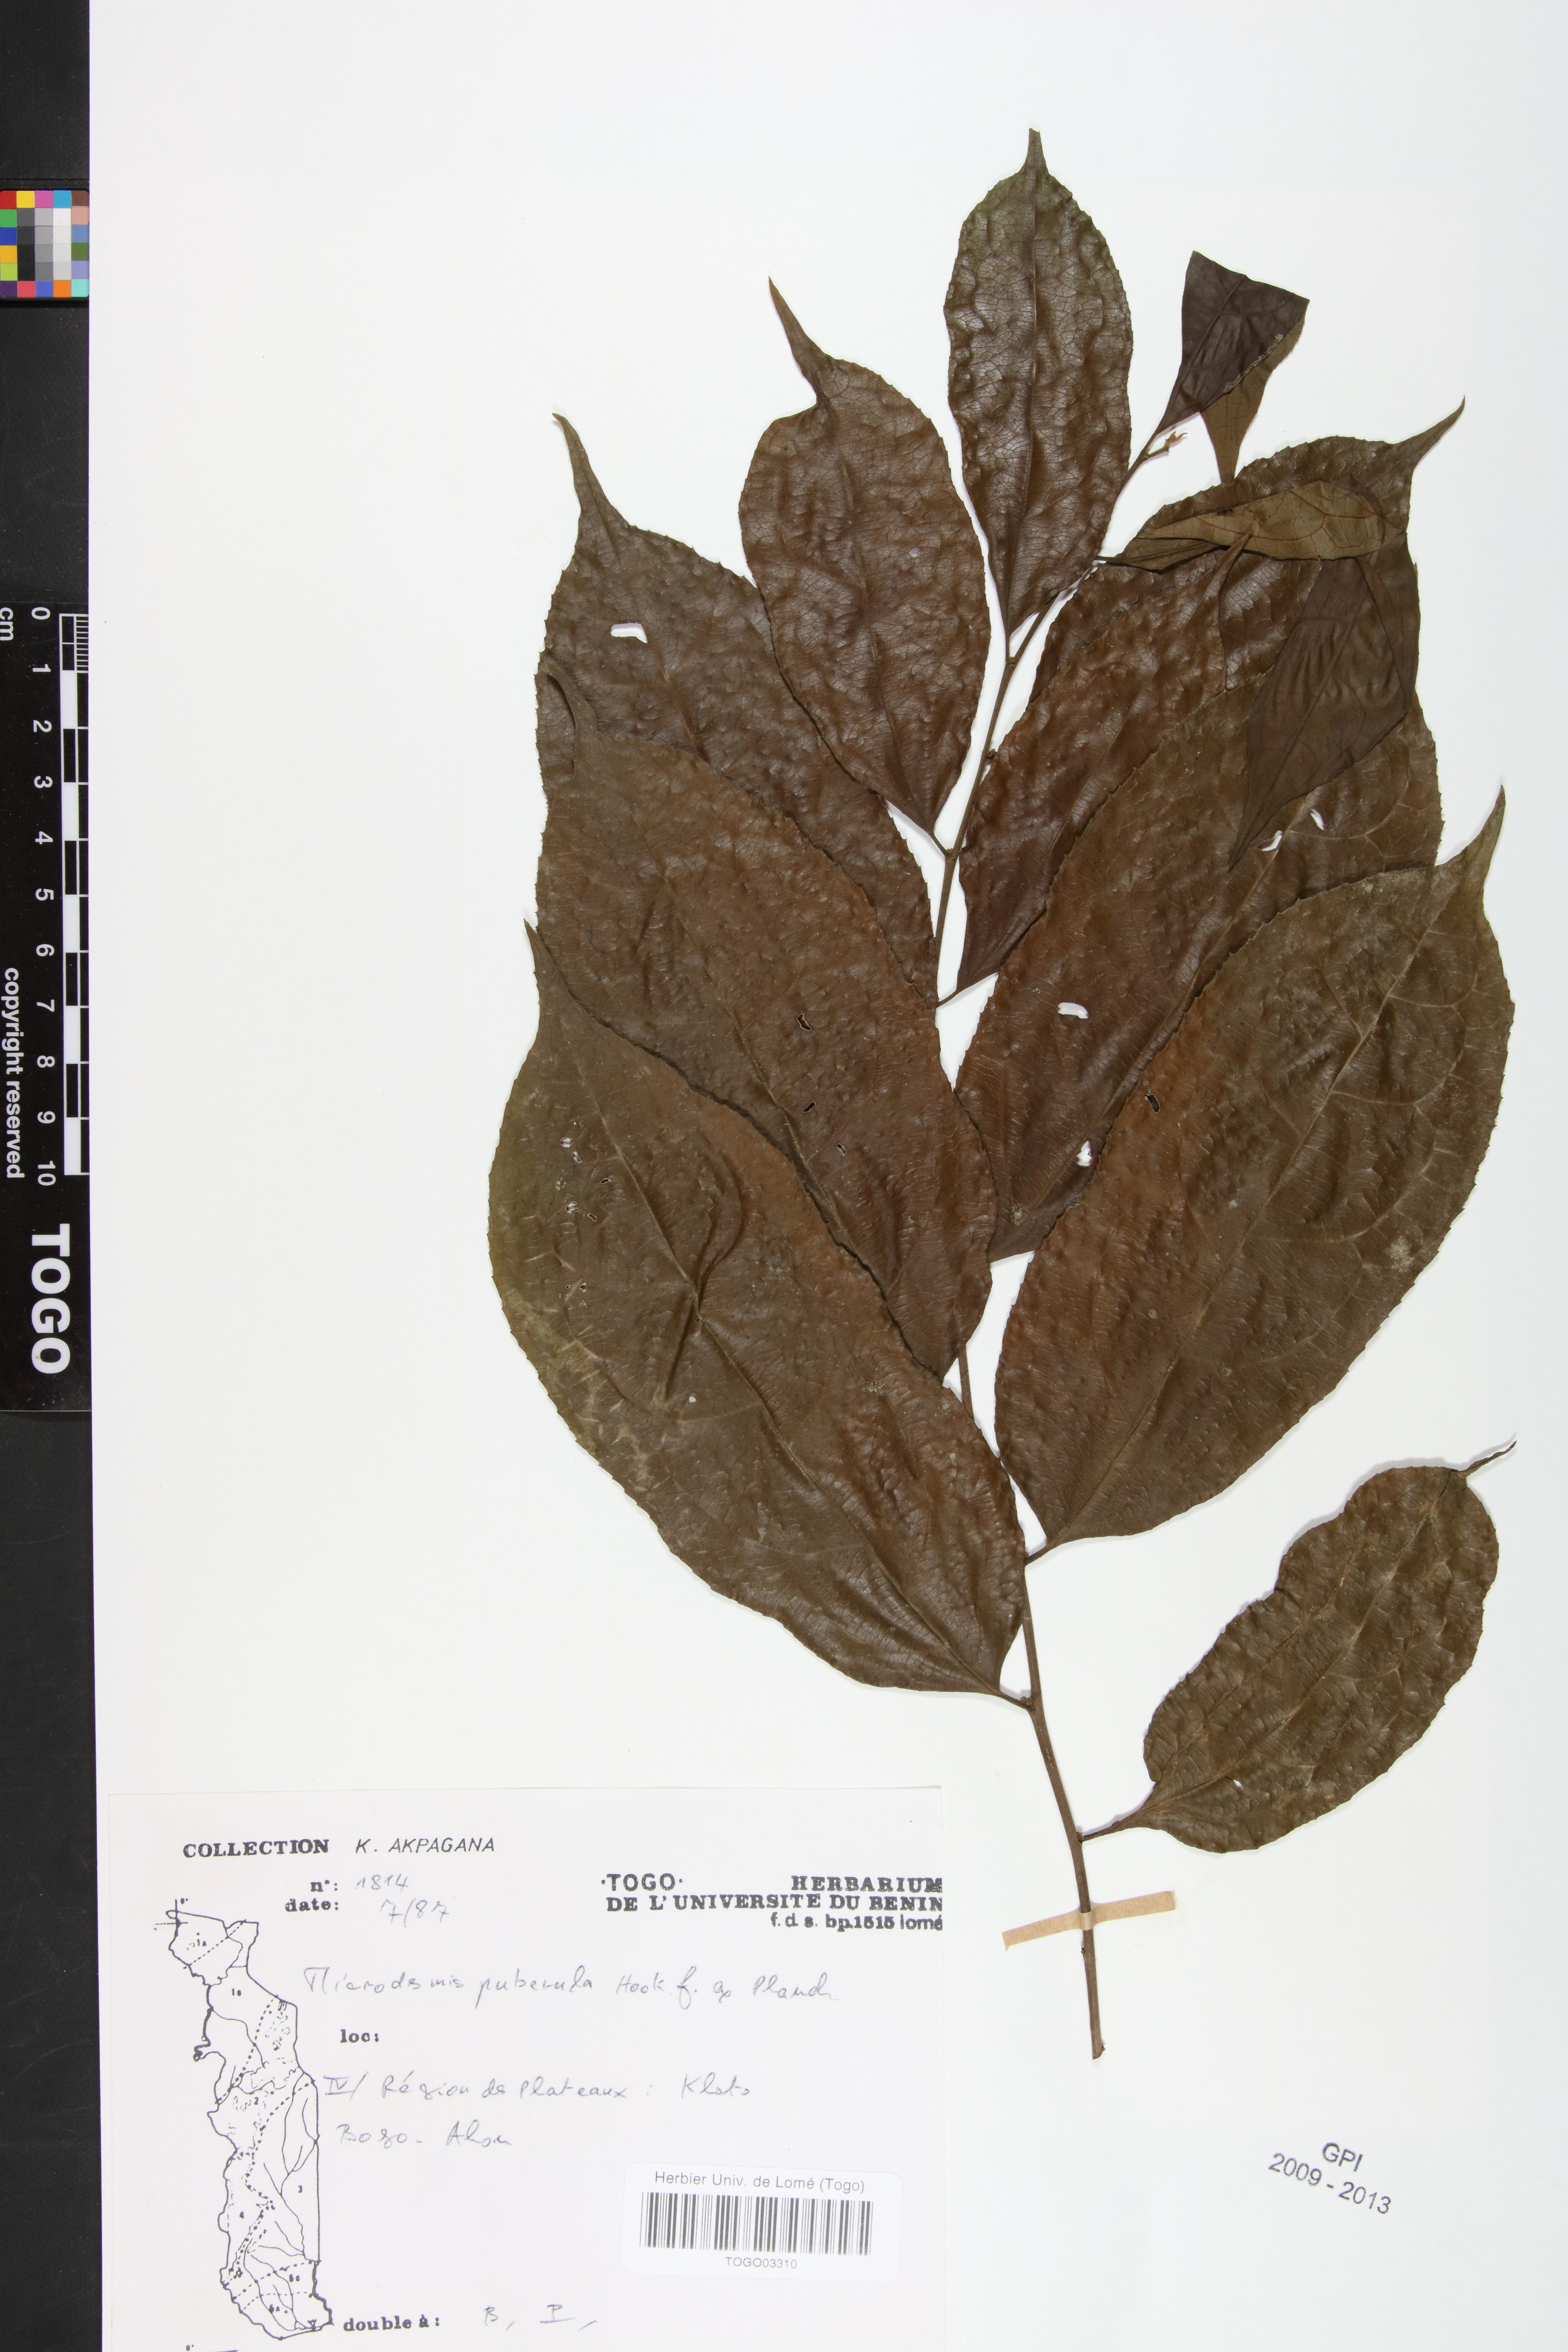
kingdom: Plantae
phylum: Tracheophyta
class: Magnoliopsida
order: Malpighiales
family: Pandaceae
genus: Microdesmis
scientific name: Microdesmis puberula
